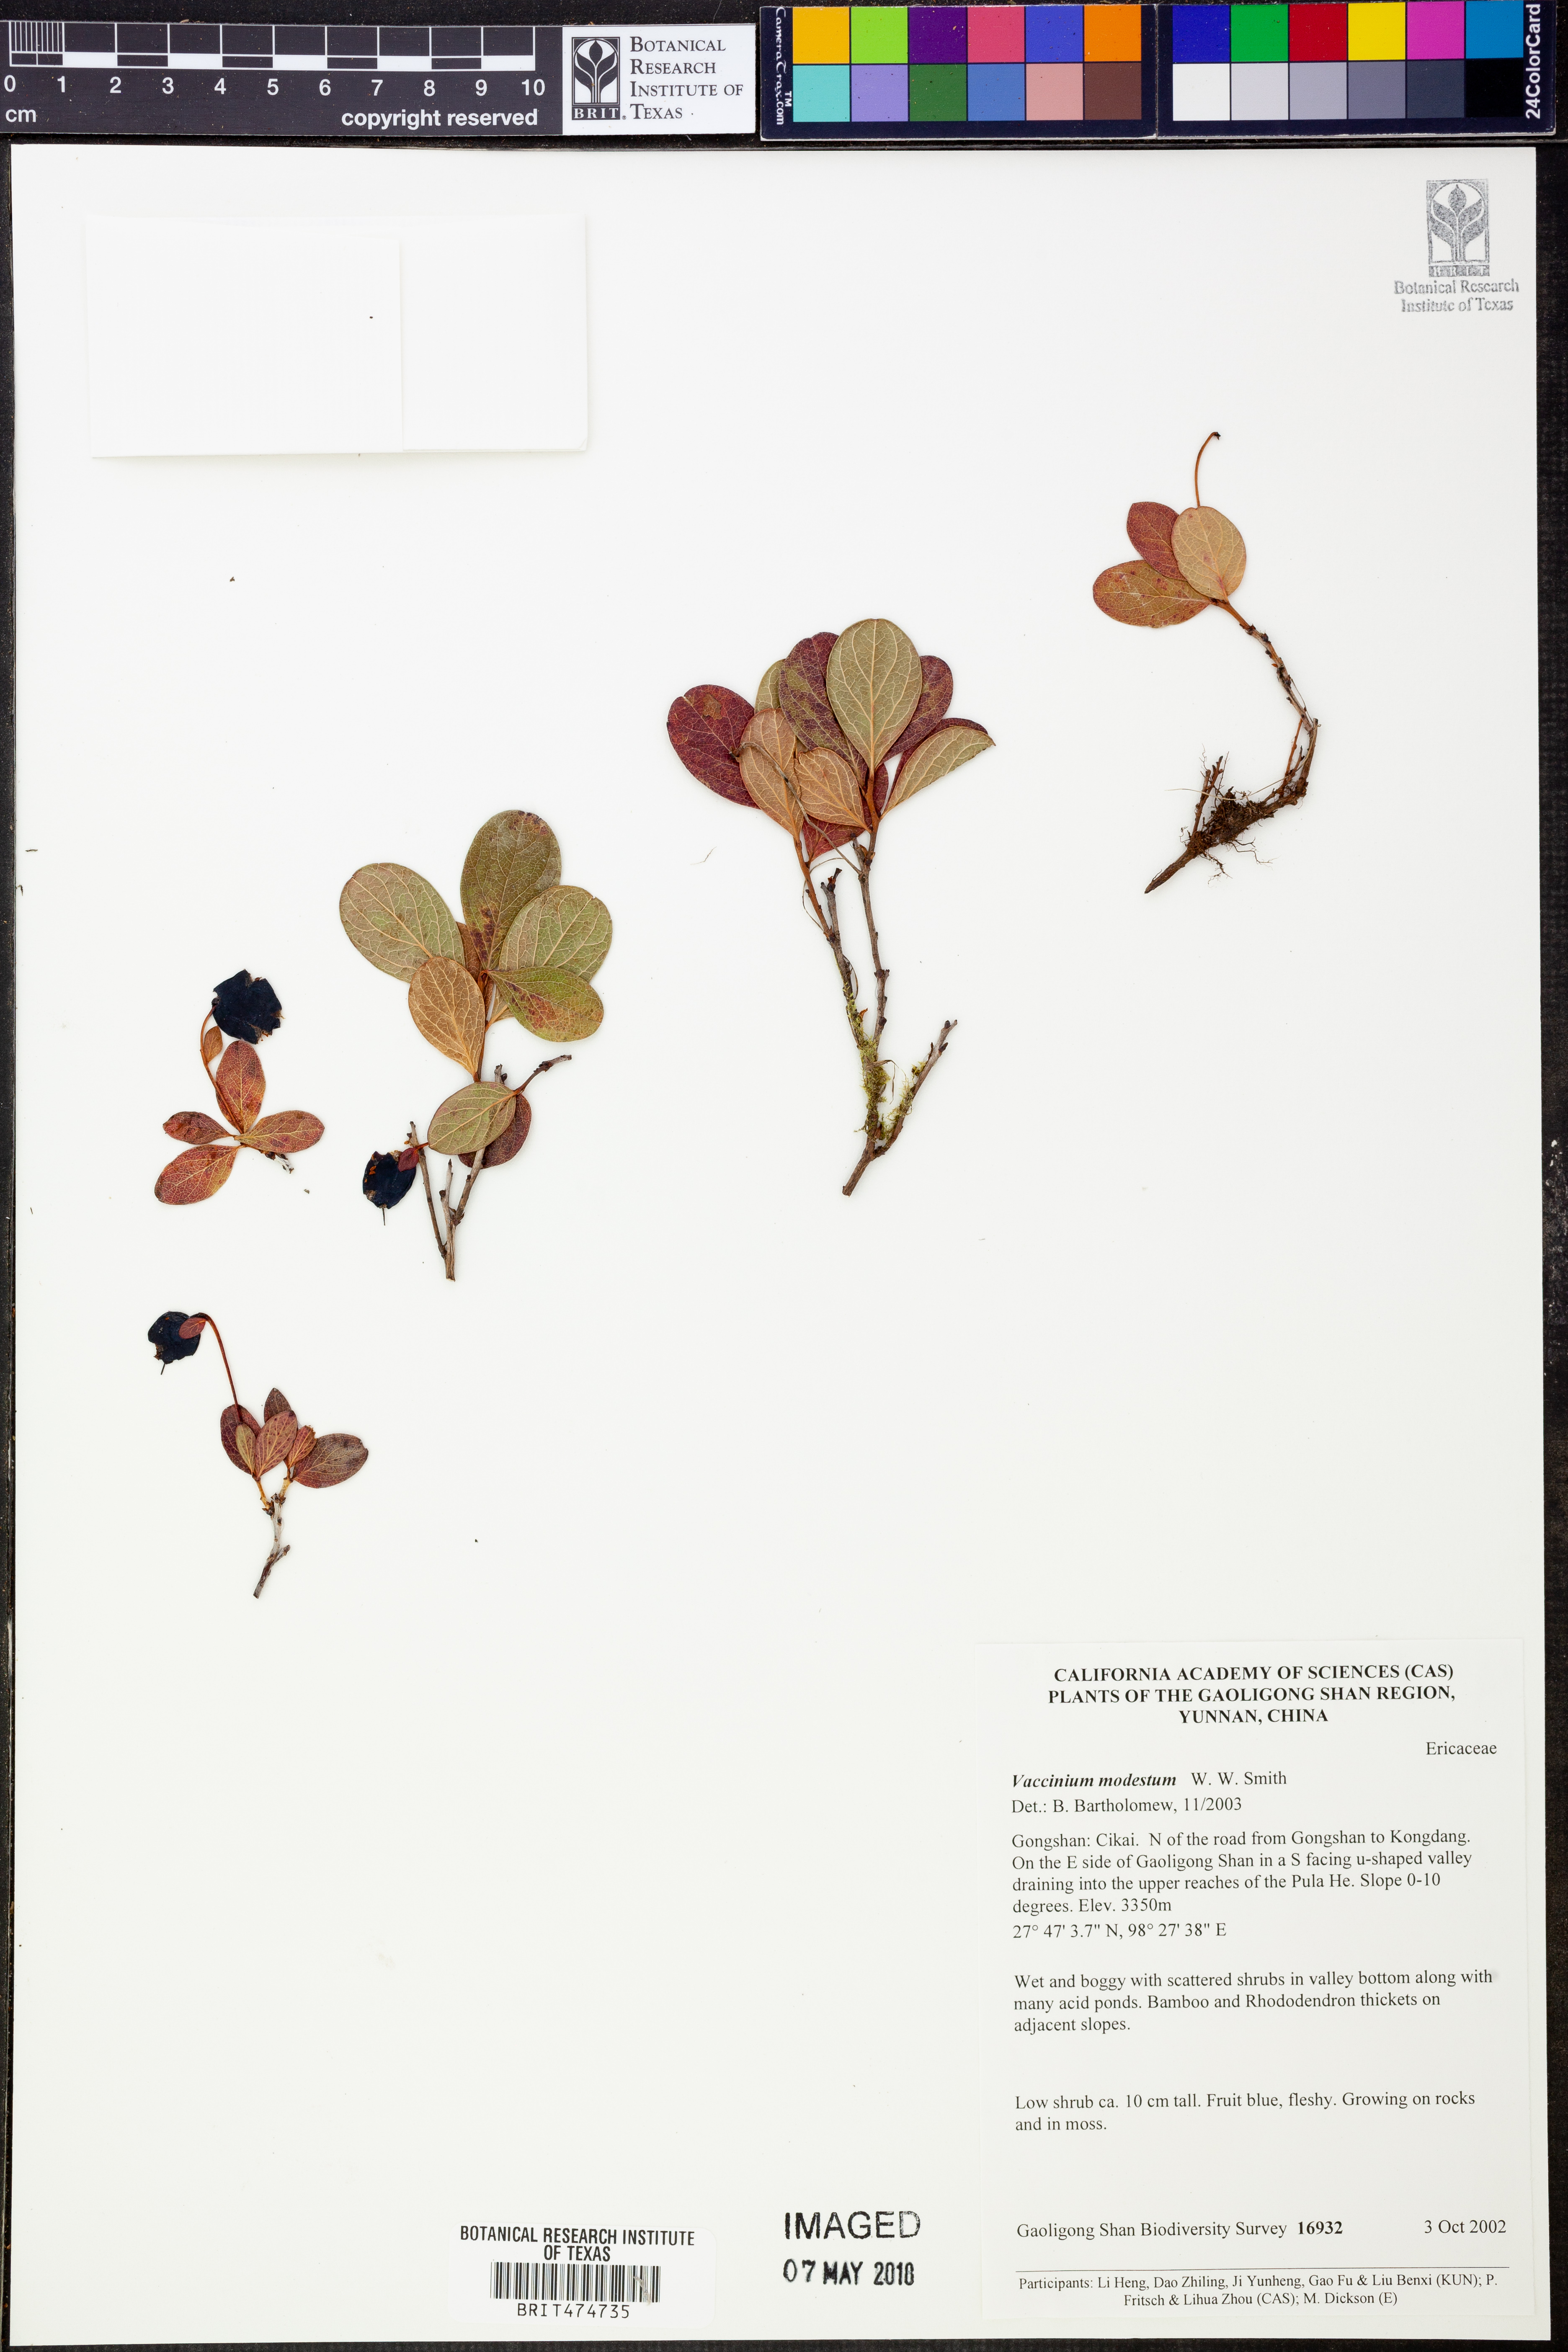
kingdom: Plantae
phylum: Tracheophyta
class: Magnoliopsida
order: Ericales
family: Ericaceae
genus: Vaccinium
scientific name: Vaccinium modestum
